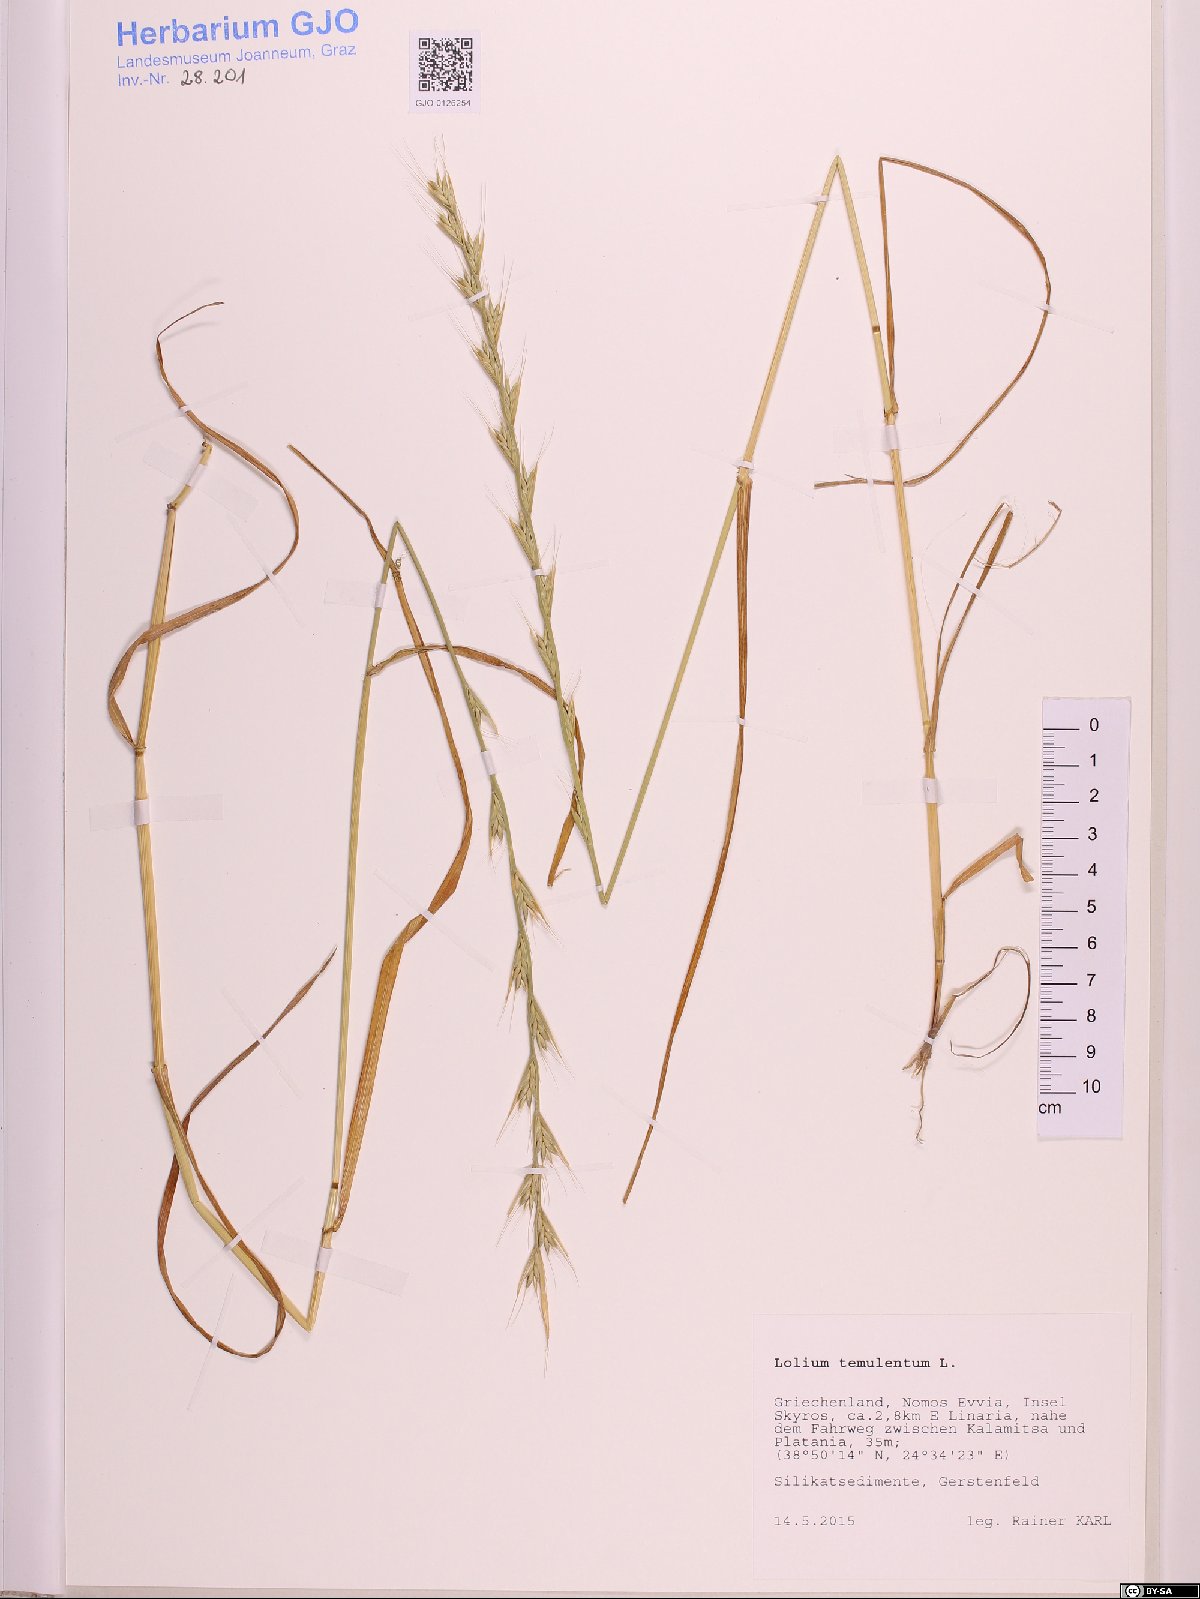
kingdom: Plantae
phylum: Tracheophyta
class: Liliopsida
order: Poales
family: Poaceae
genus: Lolium
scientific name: Lolium temulentum
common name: Darnel
